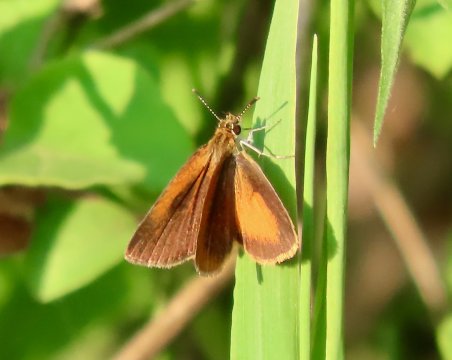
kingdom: Animalia
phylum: Arthropoda
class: Insecta
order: Lepidoptera
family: Hesperiidae
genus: Ancyloxypha
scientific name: Ancyloxypha numitor
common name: Least Skipper
